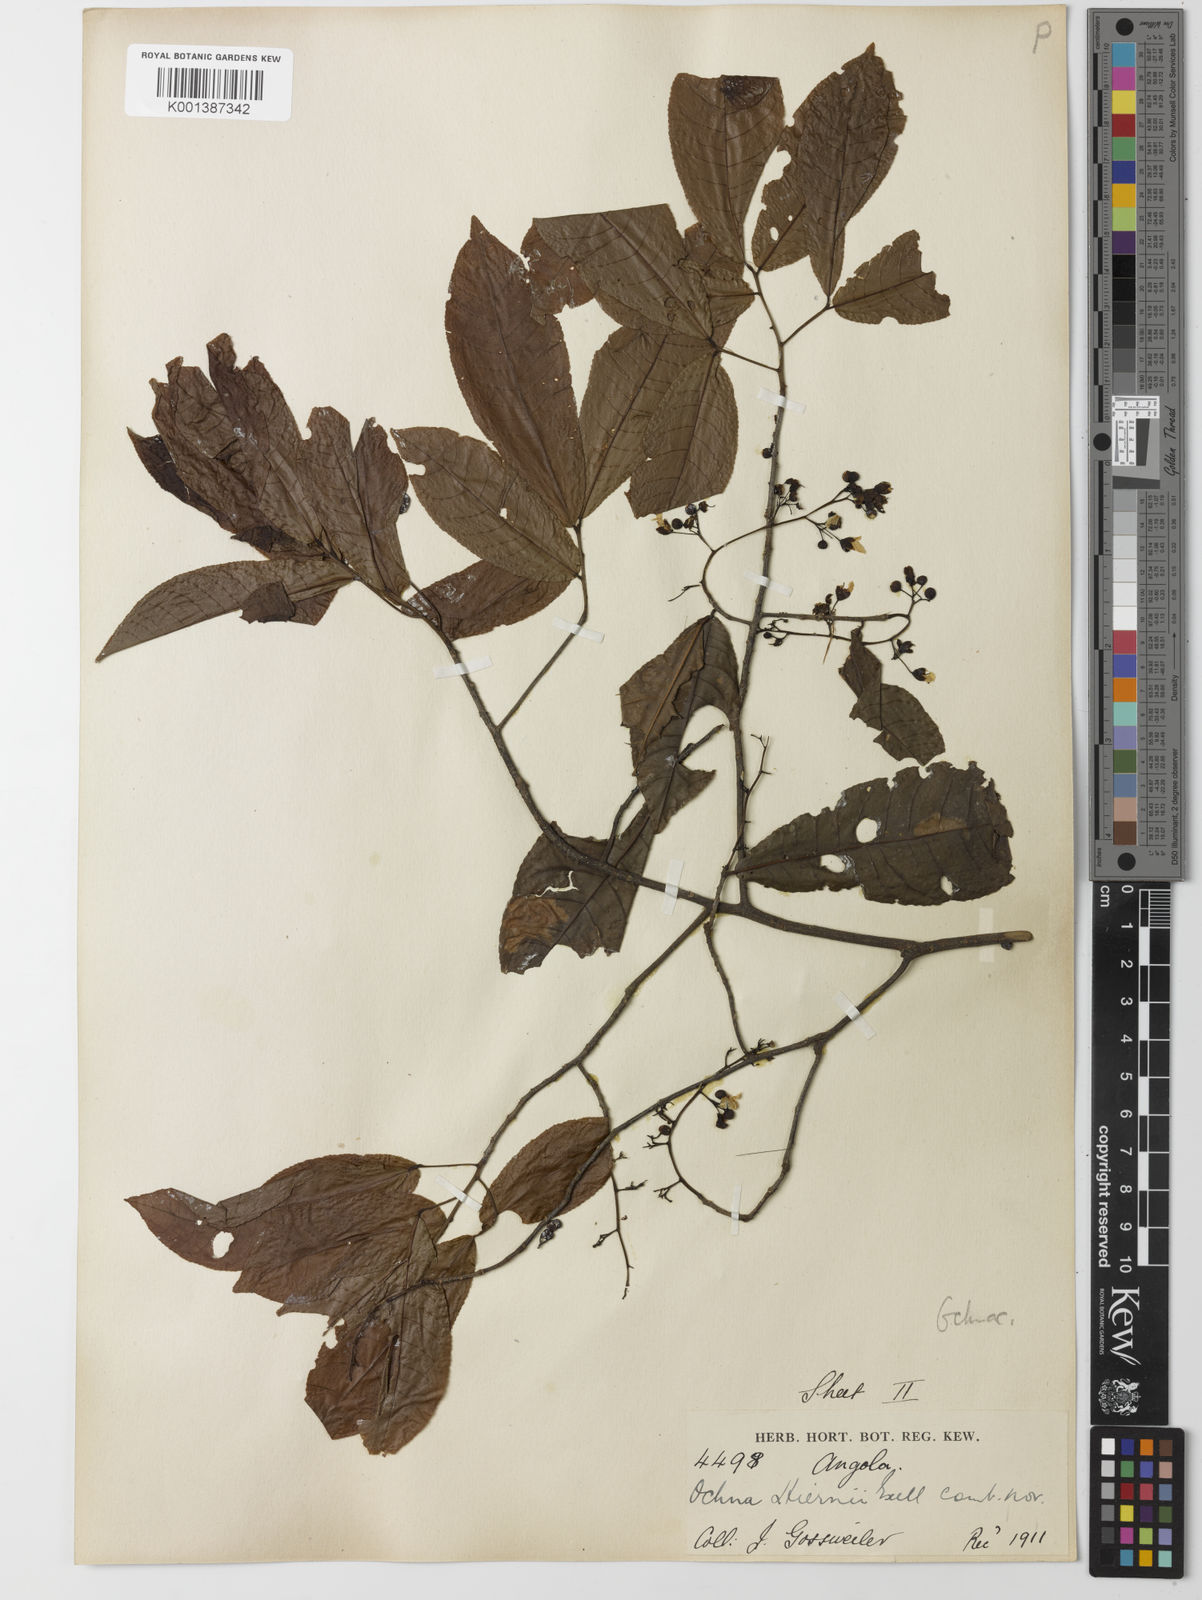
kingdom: Plantae
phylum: Tracheophyta
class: Magnoliopsida
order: Malpighiales
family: Ochnaceae
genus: Ochna
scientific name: Ochna membranacea
